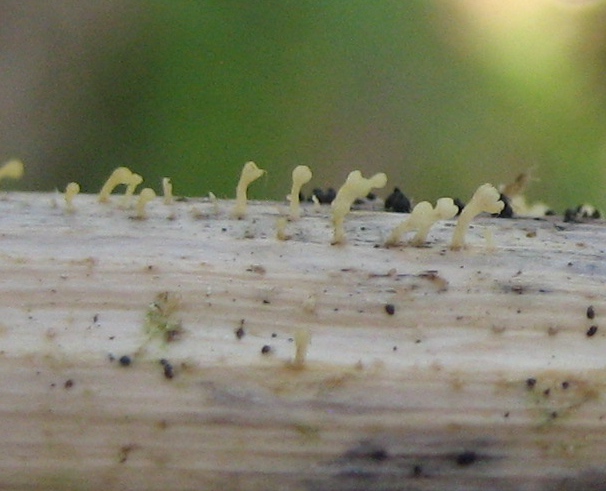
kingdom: Fungi
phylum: Basidiomycota
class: Agaricomycetes
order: Agaricales
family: Marasmiaceae
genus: Calyptella
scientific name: Calyptella campanula
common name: gul nældehue
